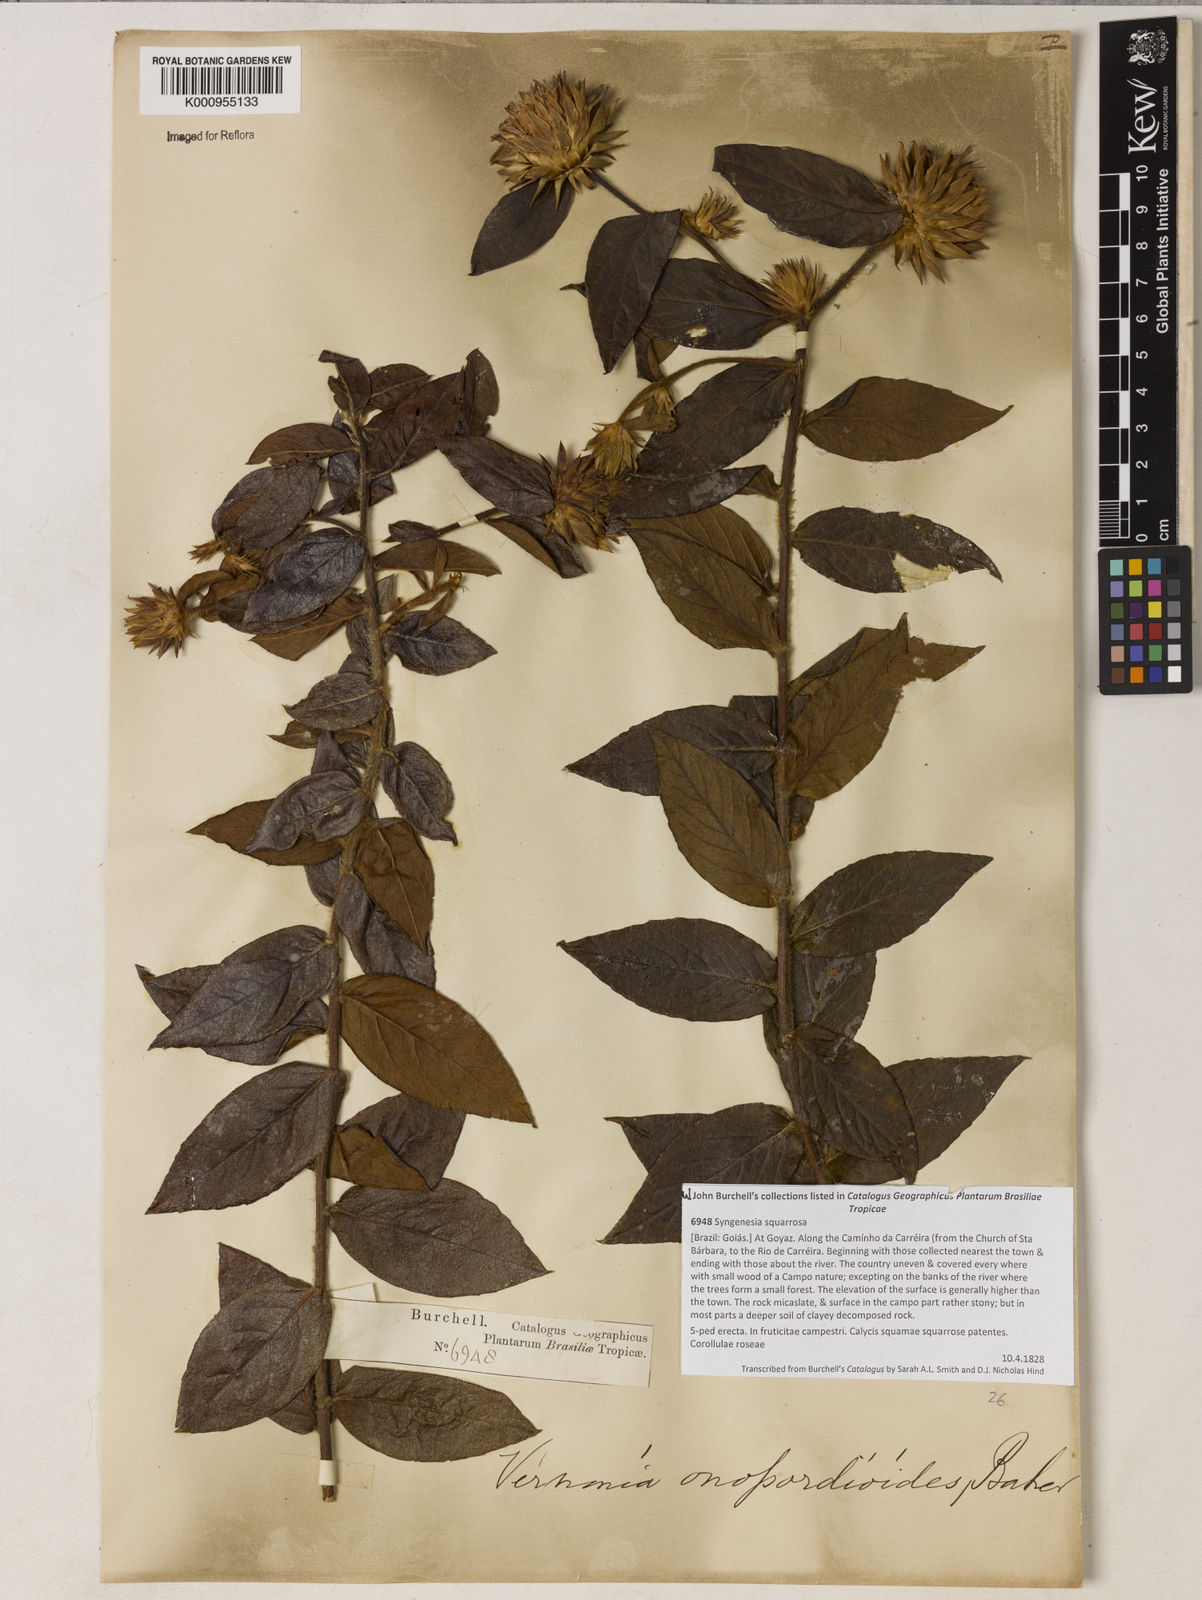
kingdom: Plantae
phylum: Tracheophyta
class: Magnoliopsida
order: Asterales
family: Asteraceae
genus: Lessingianthus
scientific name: Lessingianthus onopordioides
